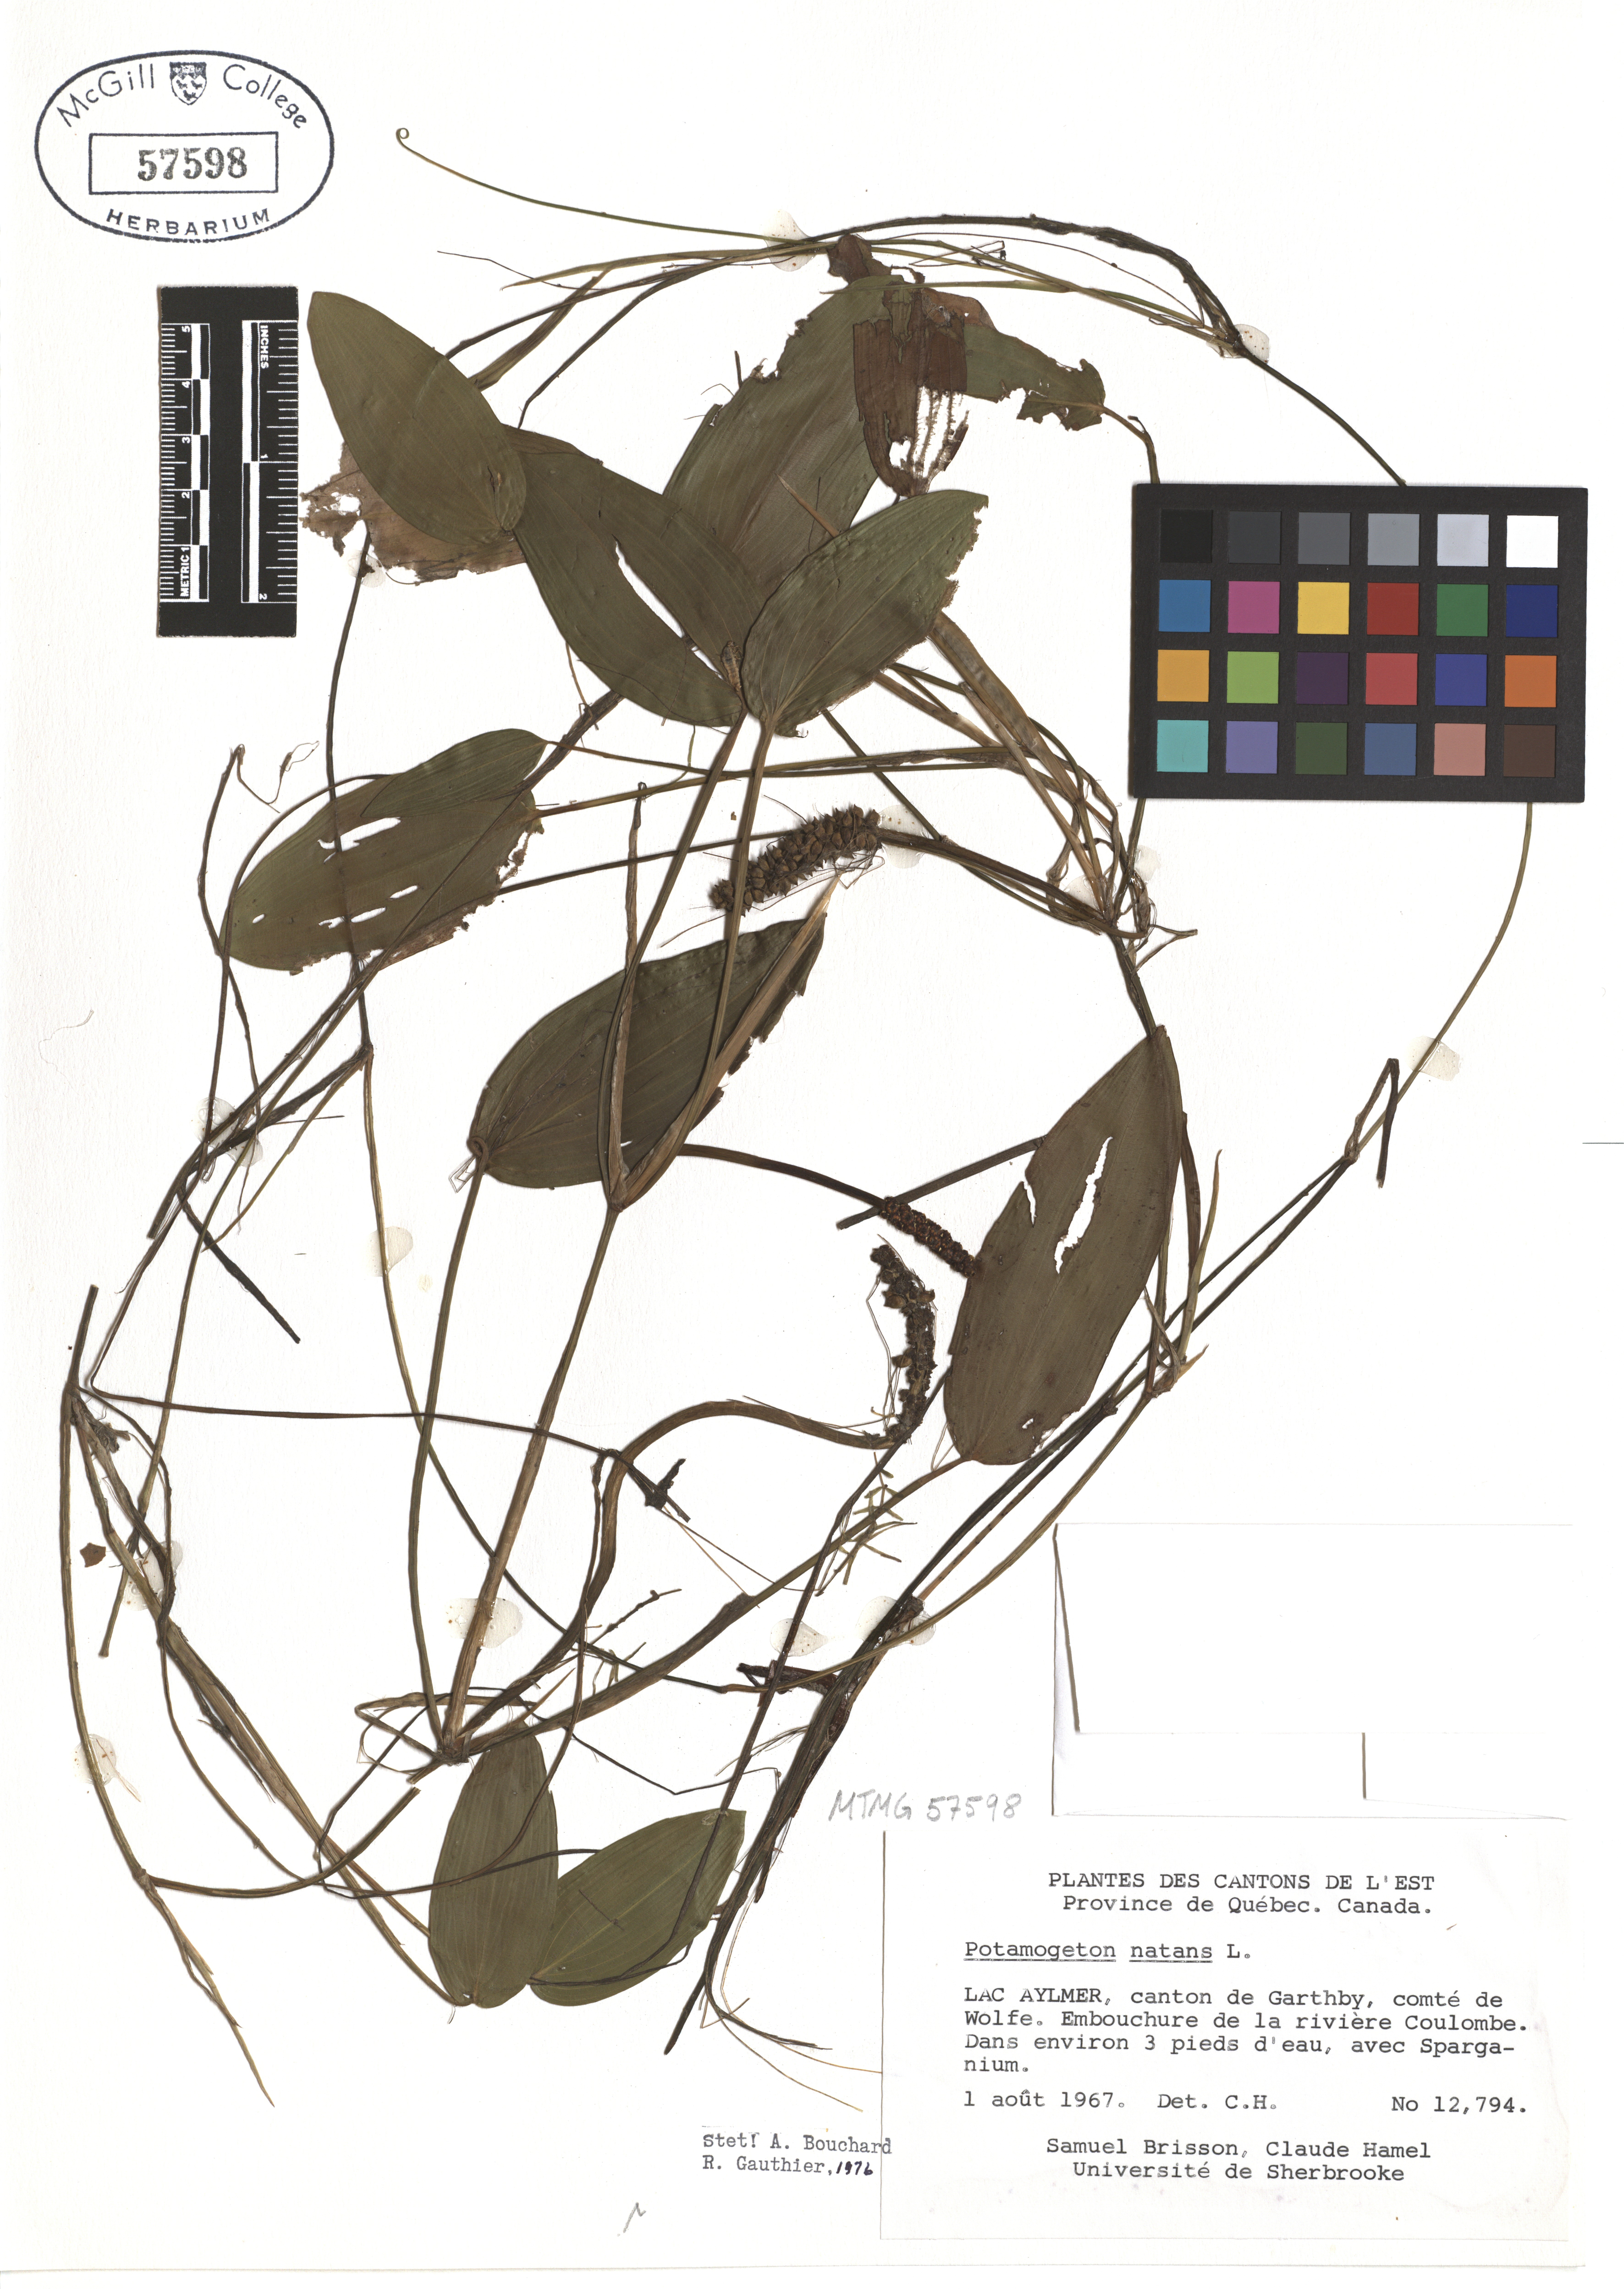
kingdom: Plantae
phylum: Tracheophyta
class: Liliopsida
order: Alismatales
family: Potamogetonaceae
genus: Potamogeton
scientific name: Potamogeton natans
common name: Broad-leaved pondweed
